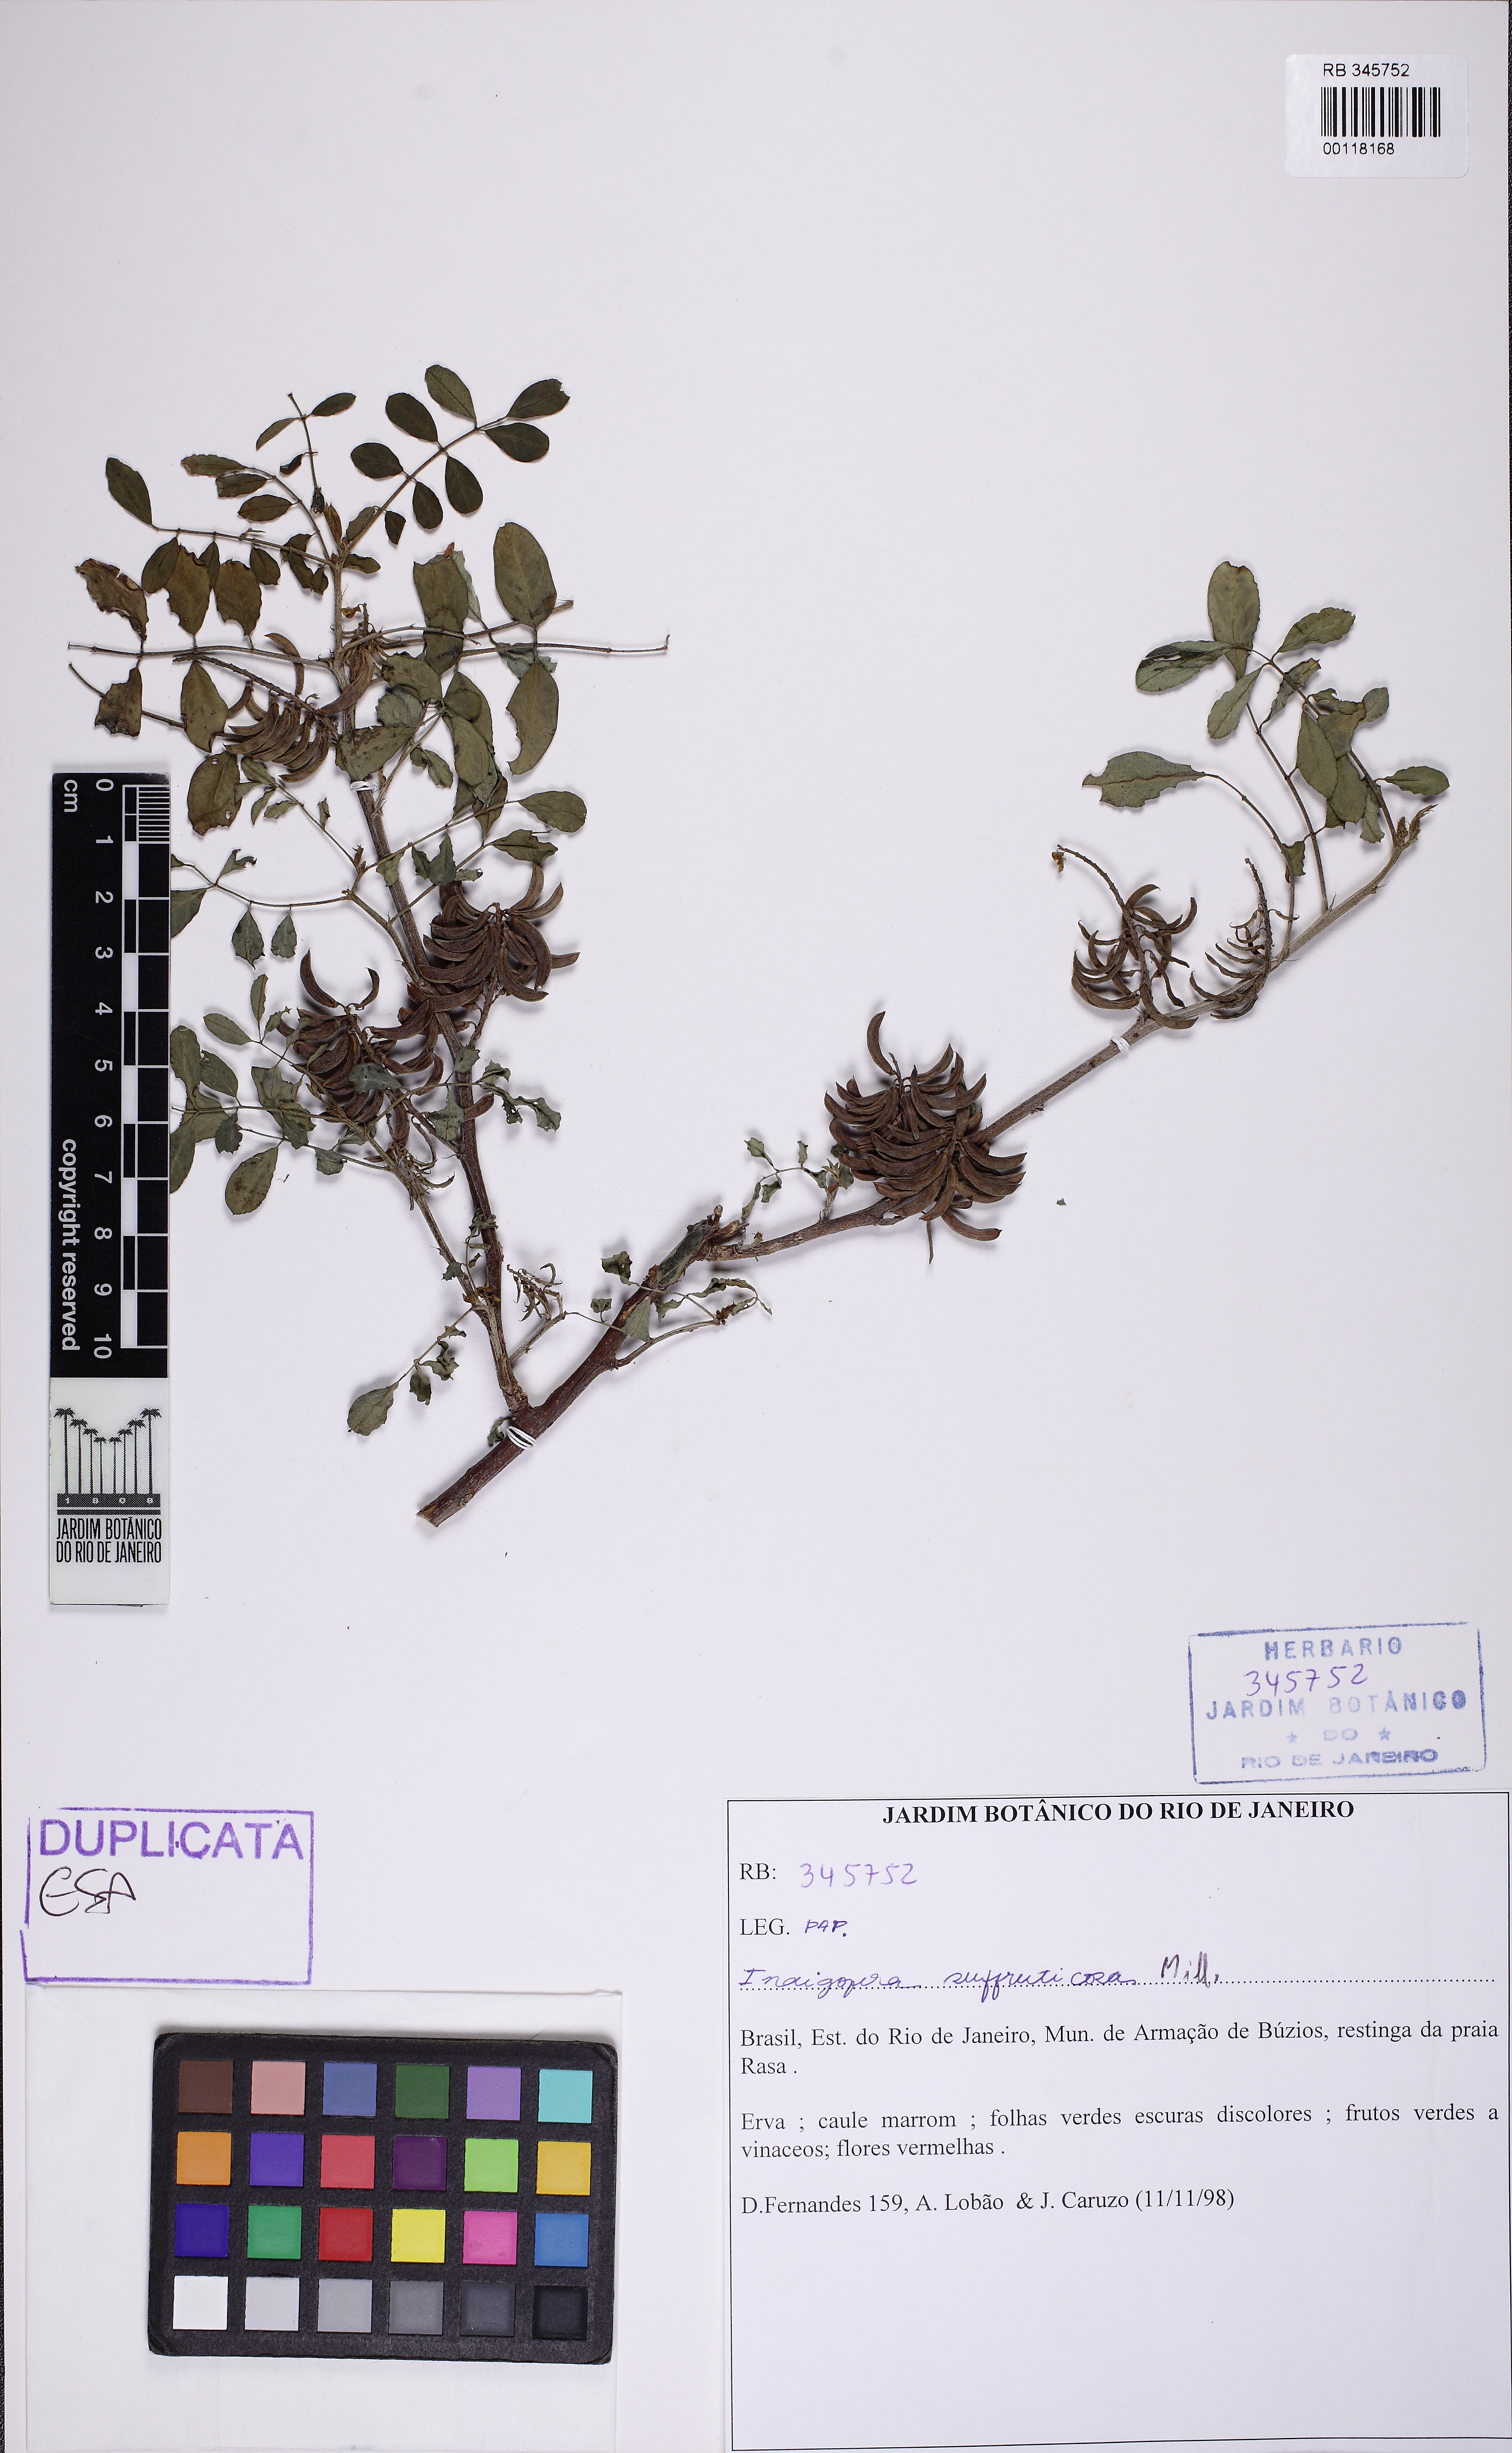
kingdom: Plantae
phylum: Tracheophyta
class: Magnoliopsida
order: Fabales
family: Fabaceae
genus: Indigofera
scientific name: Indigofera suffruticosa
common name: Anil de pasto
